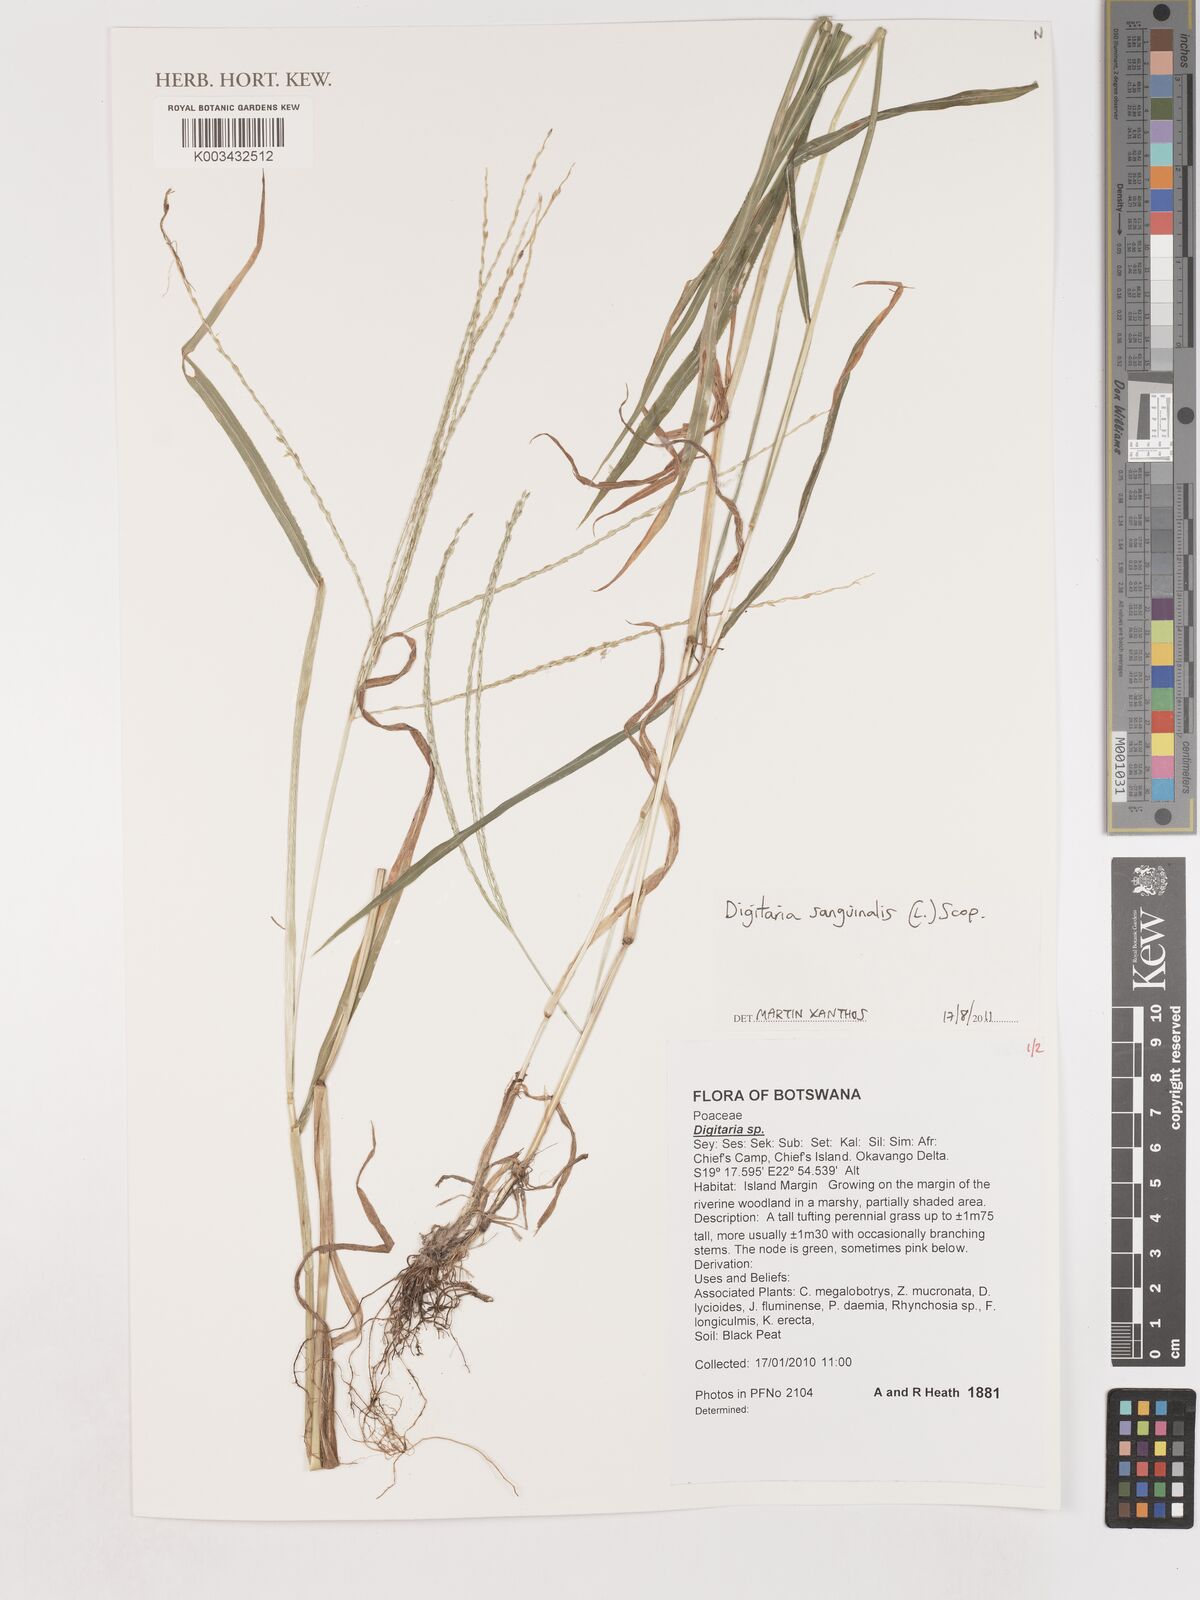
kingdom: Plantae
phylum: Tracheophyta
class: Liliopsida
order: Poales
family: Poaceae
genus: Digitaria
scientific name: Digitaria sanguinalis
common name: Hairy crabgrass
